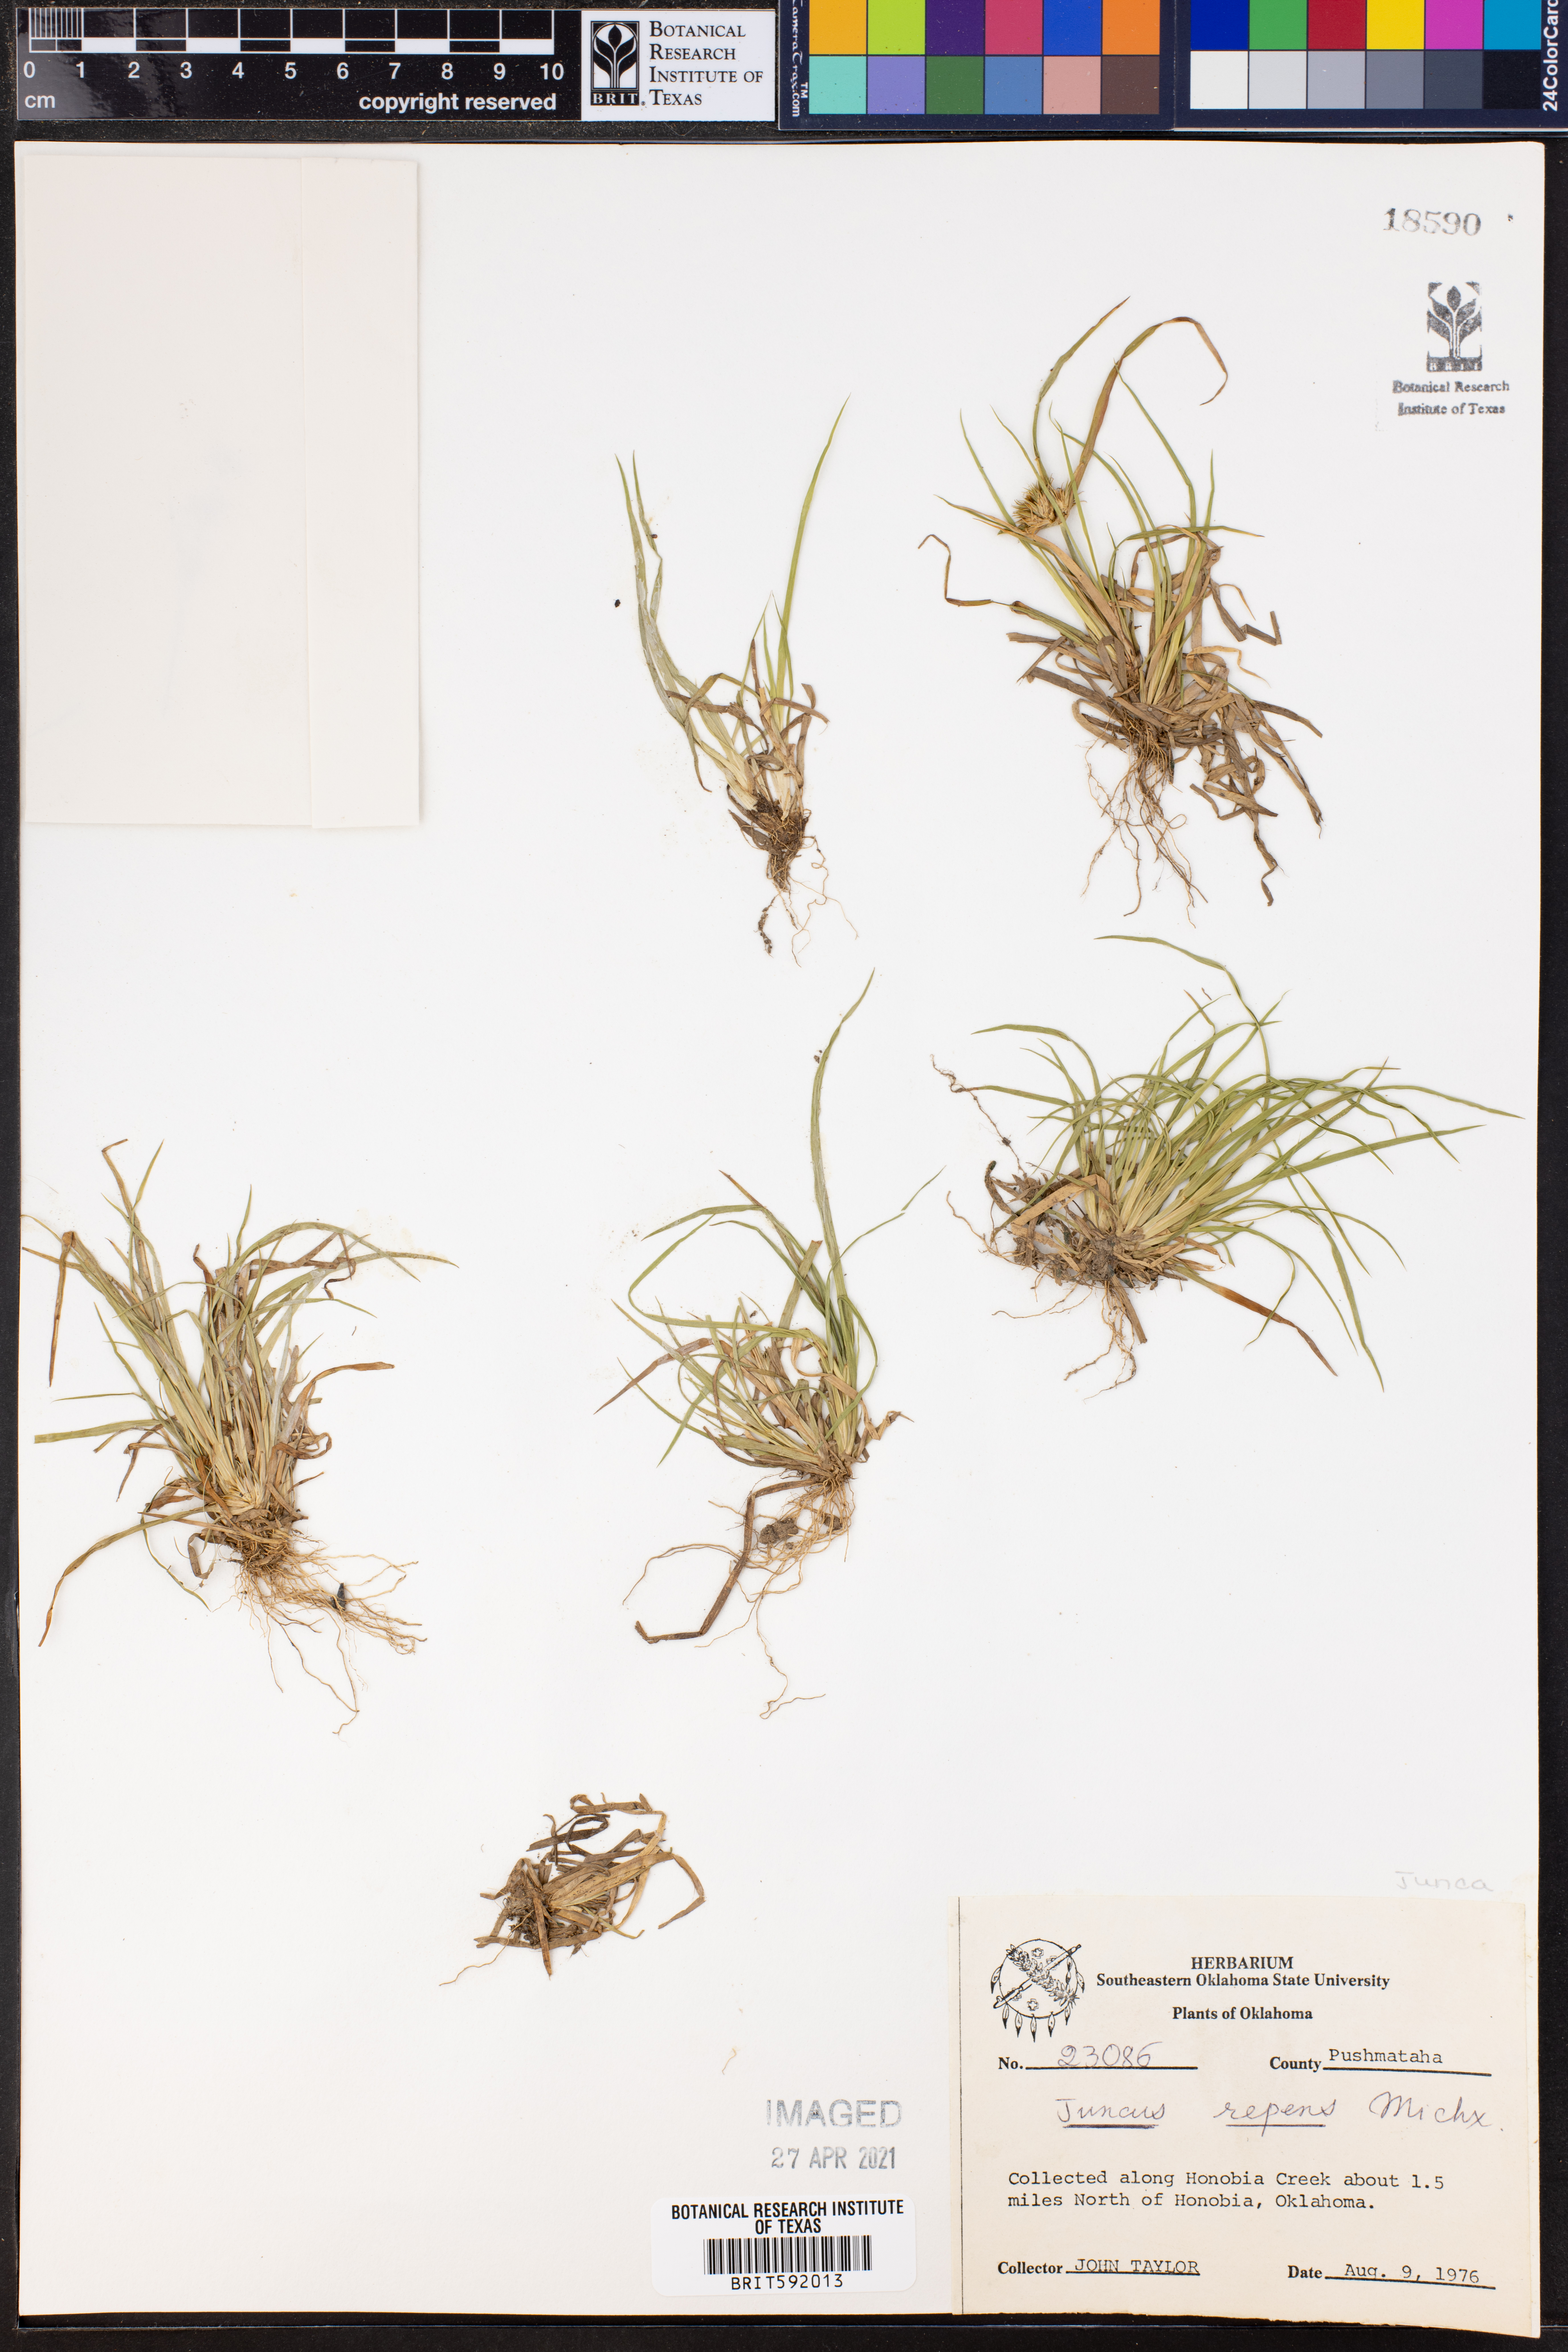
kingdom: Plantae
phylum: Tracheophyta
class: Liliopsida
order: Poales
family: Juncaceae
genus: Juncus
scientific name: Juncus repens
